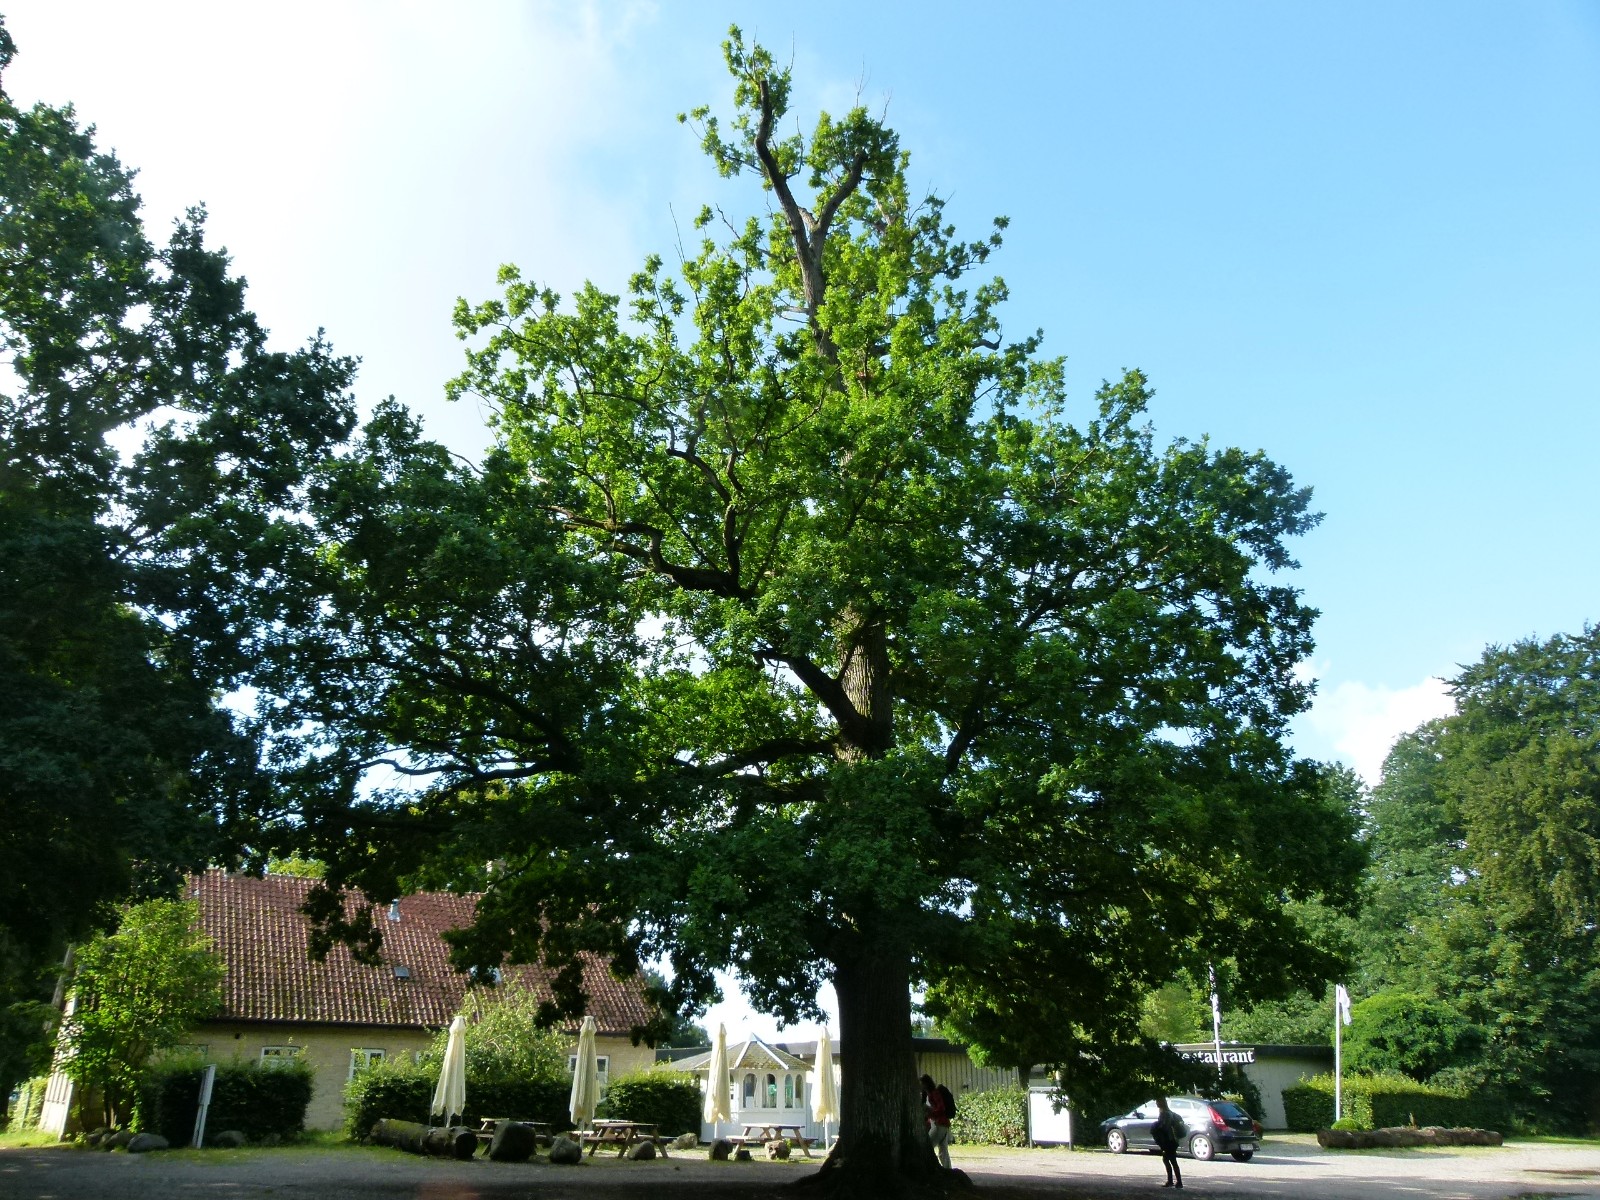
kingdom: Fungi
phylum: Basidiomycota
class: Agaricomycetes
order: Hymenochaetales
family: Hymenochaetaceae
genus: Pseudoinonotus
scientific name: Pseudoinonotus dryadeus
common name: ege-spejlporesvamp
